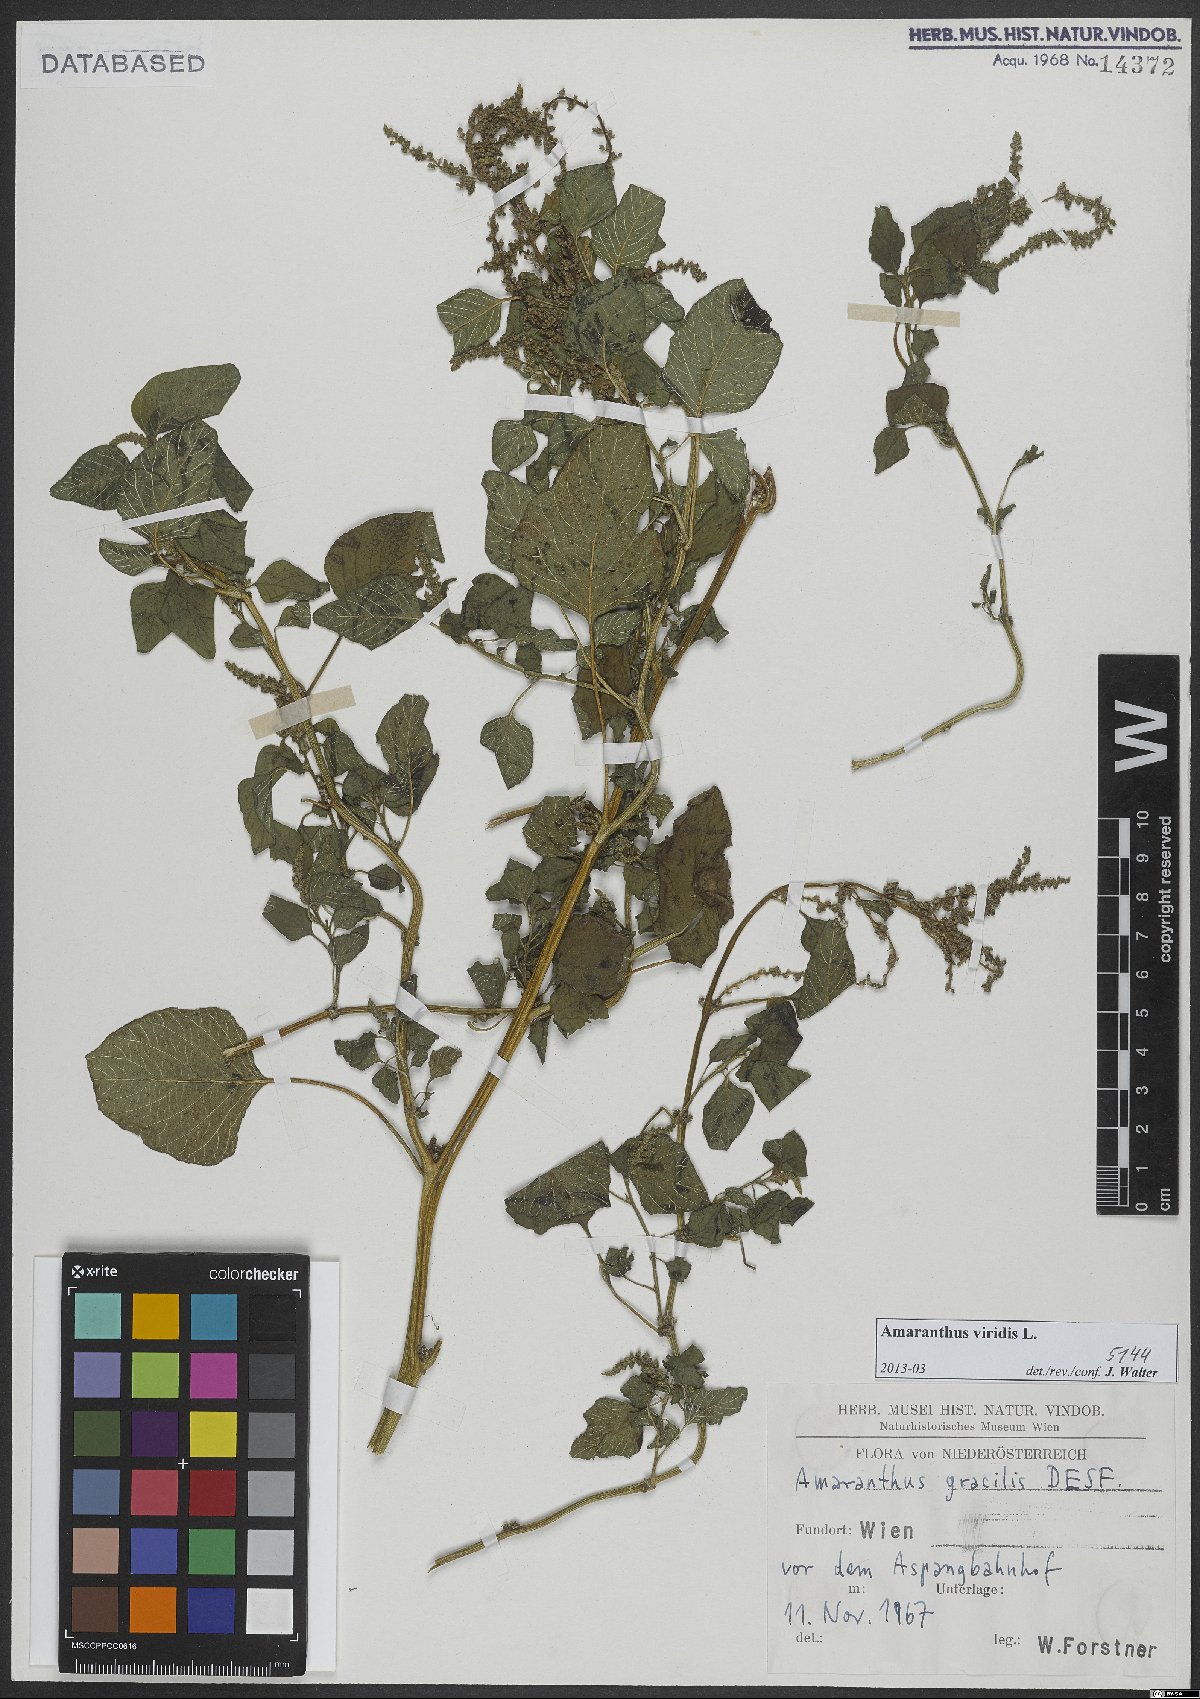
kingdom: Plantae
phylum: Tracheophyta
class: Magnoliopsida
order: Caryophyllales
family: Amaranthaceae
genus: Amaranthus
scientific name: Amaranthus viridis
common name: Slender amaranth
